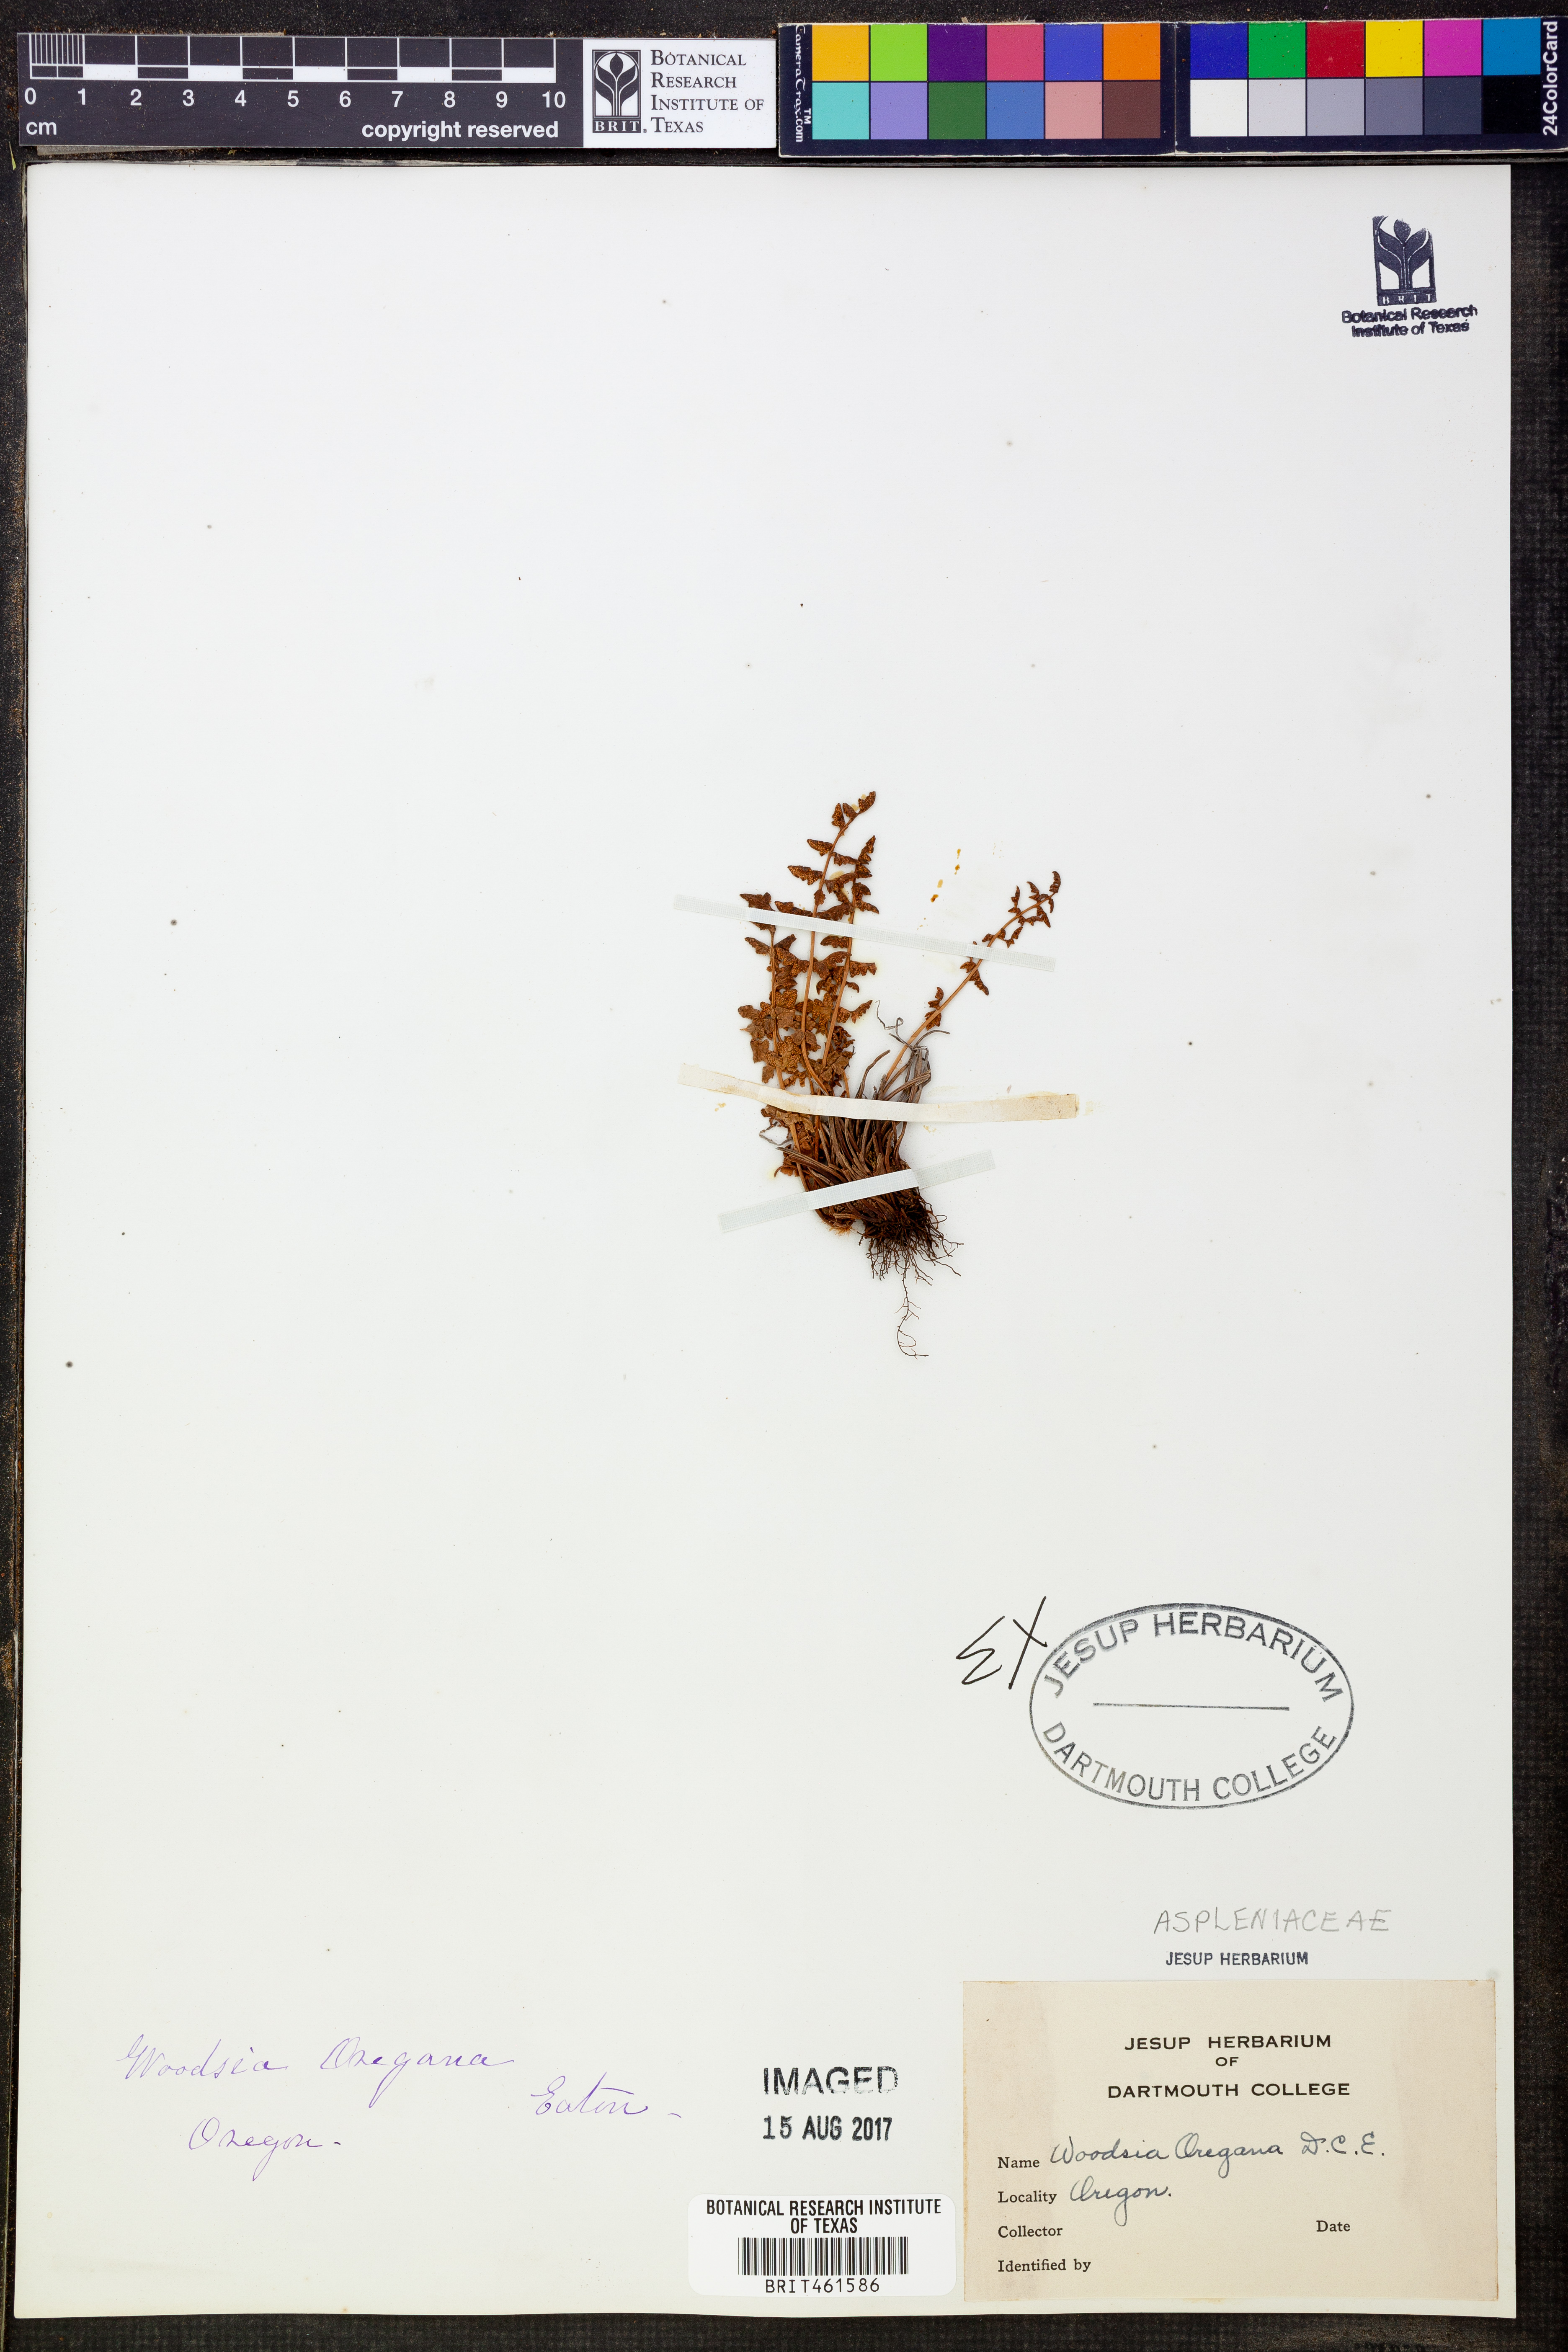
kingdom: Plantae
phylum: Tracheophyta
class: Polypodiopsida
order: Polypodiales
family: Woodsiaceae
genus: Physematium
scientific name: Physematium oreganum
